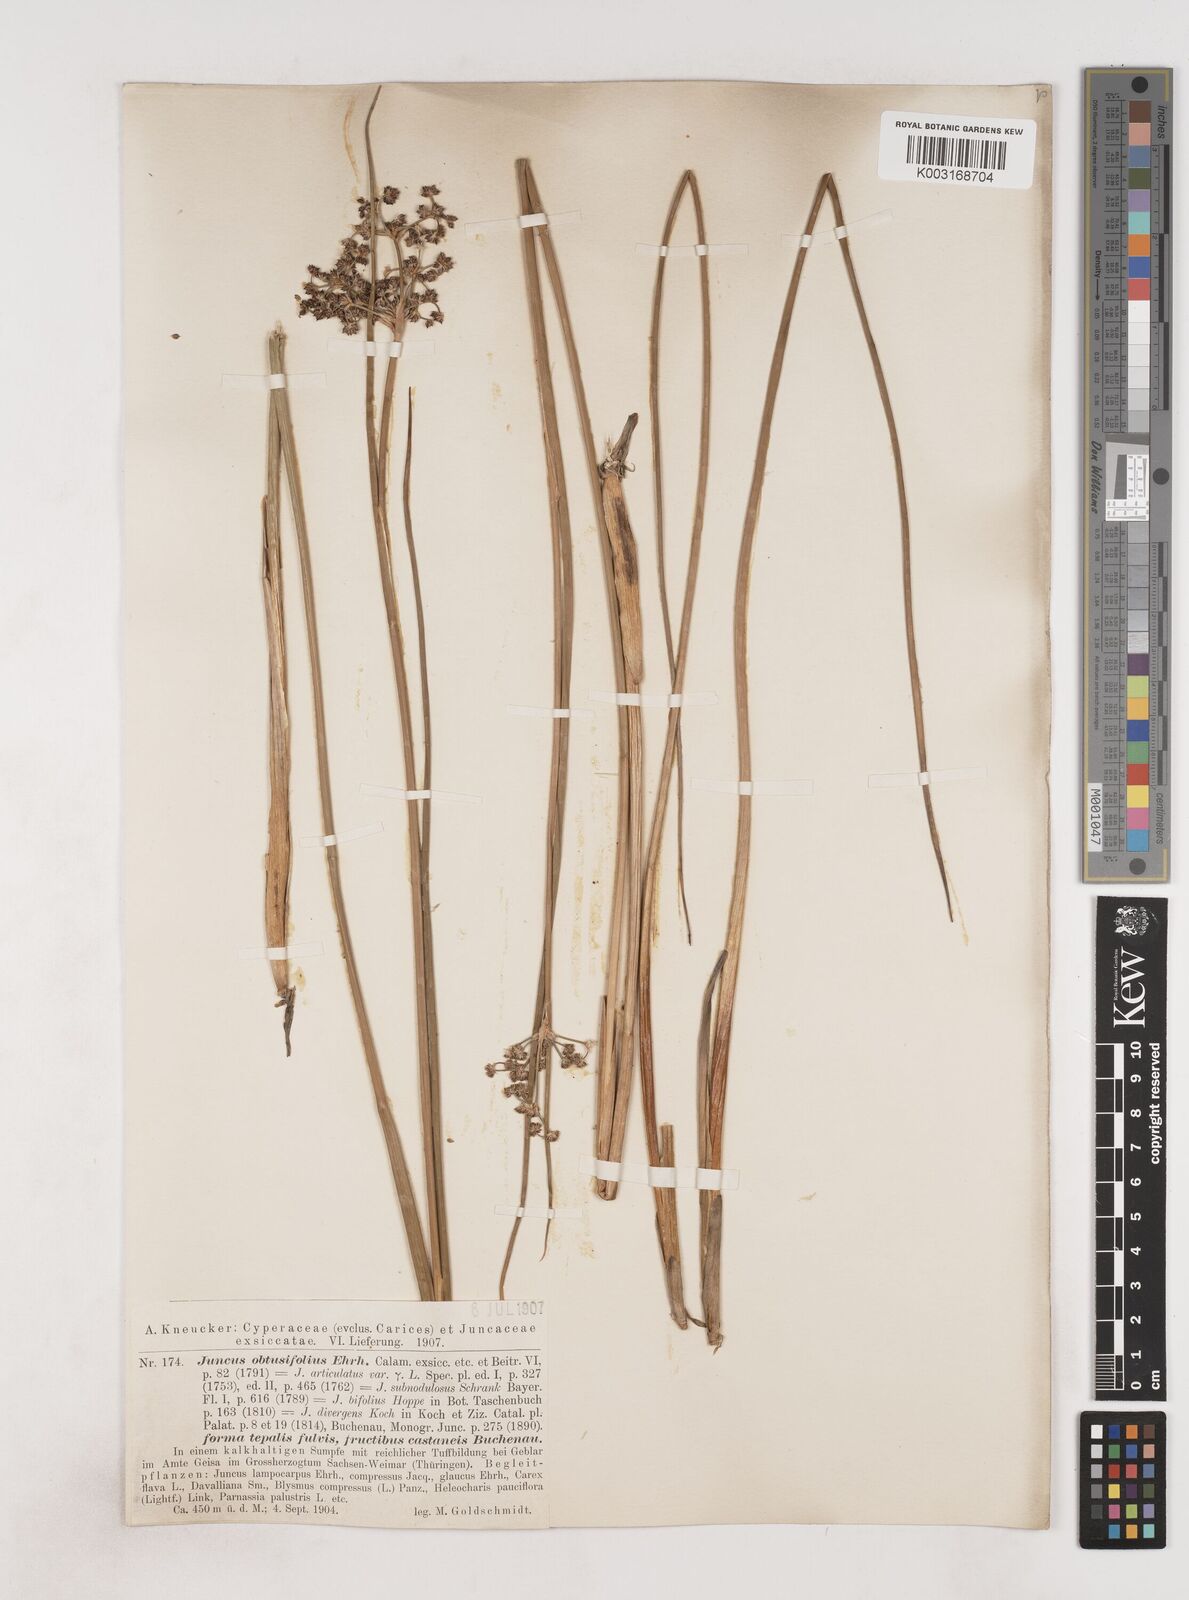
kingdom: Plantae
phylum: Tracheophyta
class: Liliopsida
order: Poales
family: Juncaceae
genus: Juncus
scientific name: Juncus subnodulosus
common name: Blunt-flowered rush
